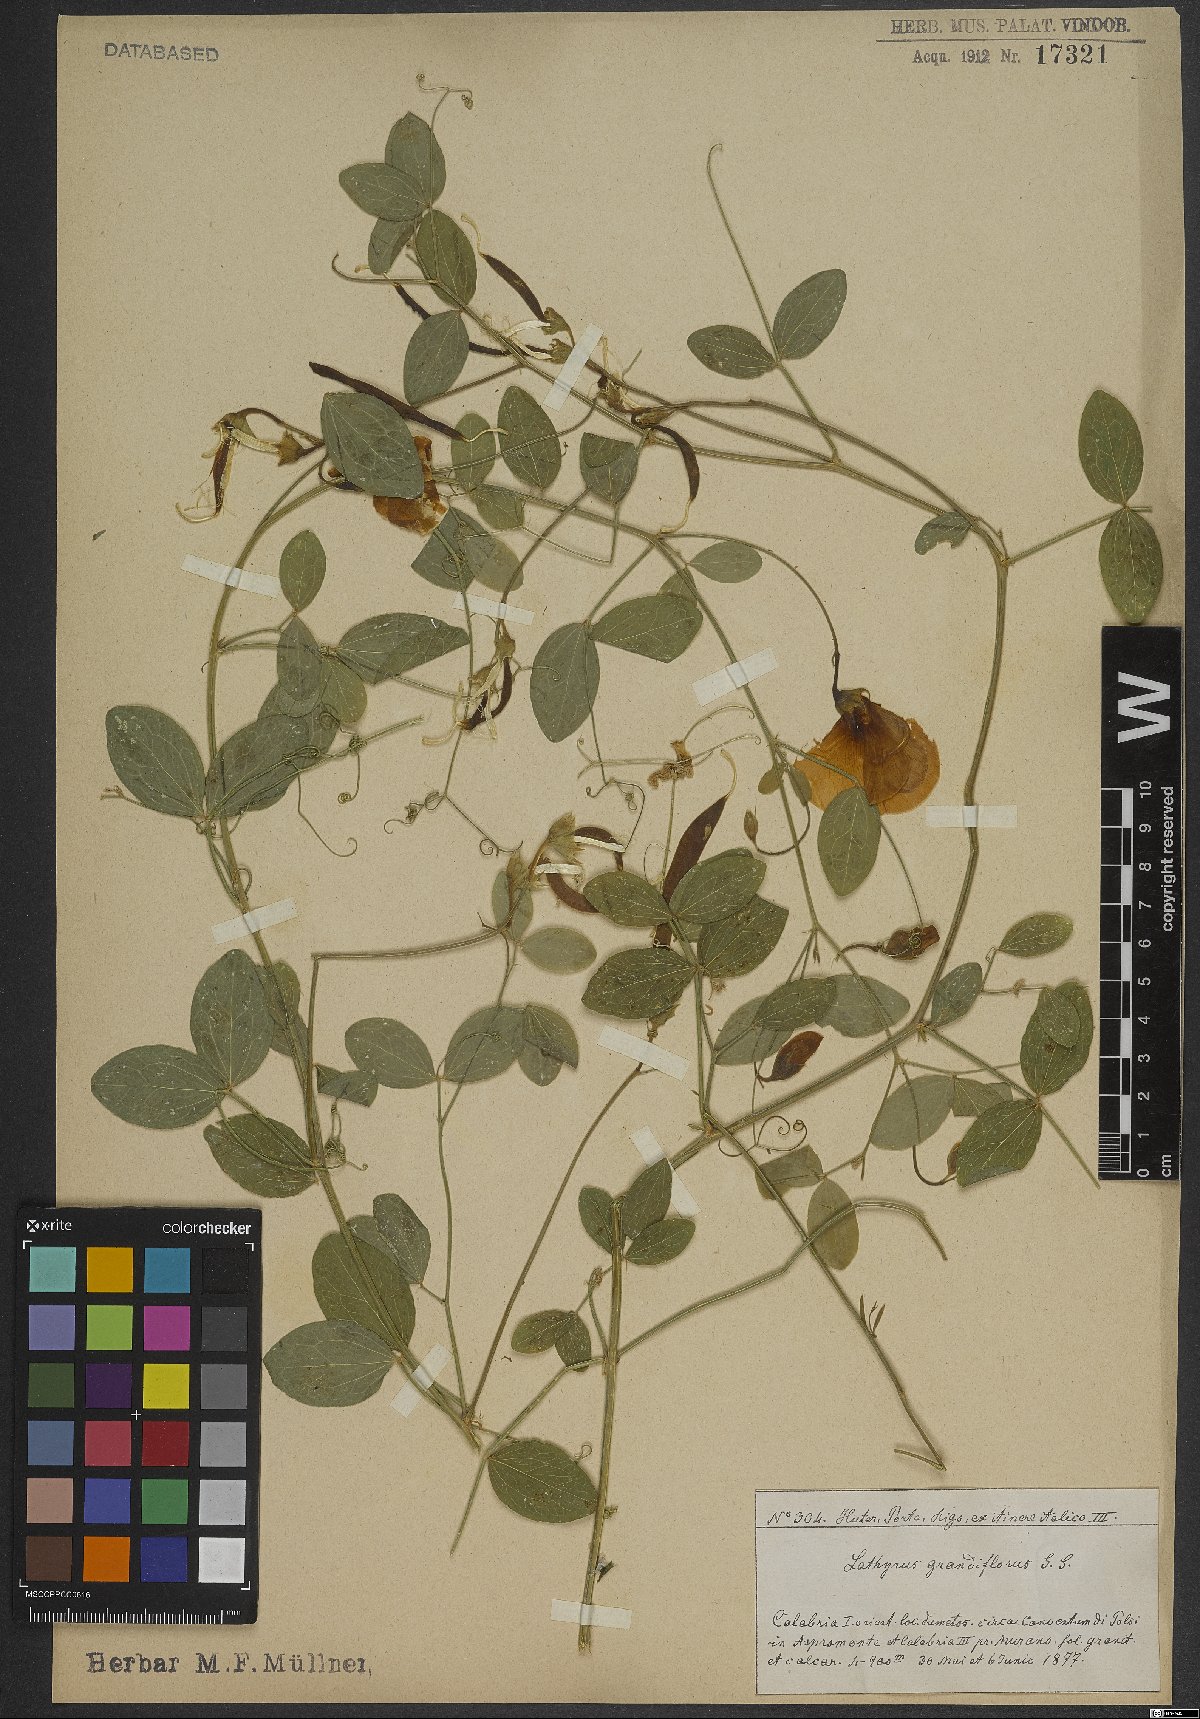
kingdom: Plantae
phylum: Tracheophyta
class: Magnoliopsida
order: Fabales
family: Fabaceae
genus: Lathyrus
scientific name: Lathyrus grandiflorus
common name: Two-flowered everlasting-pea
